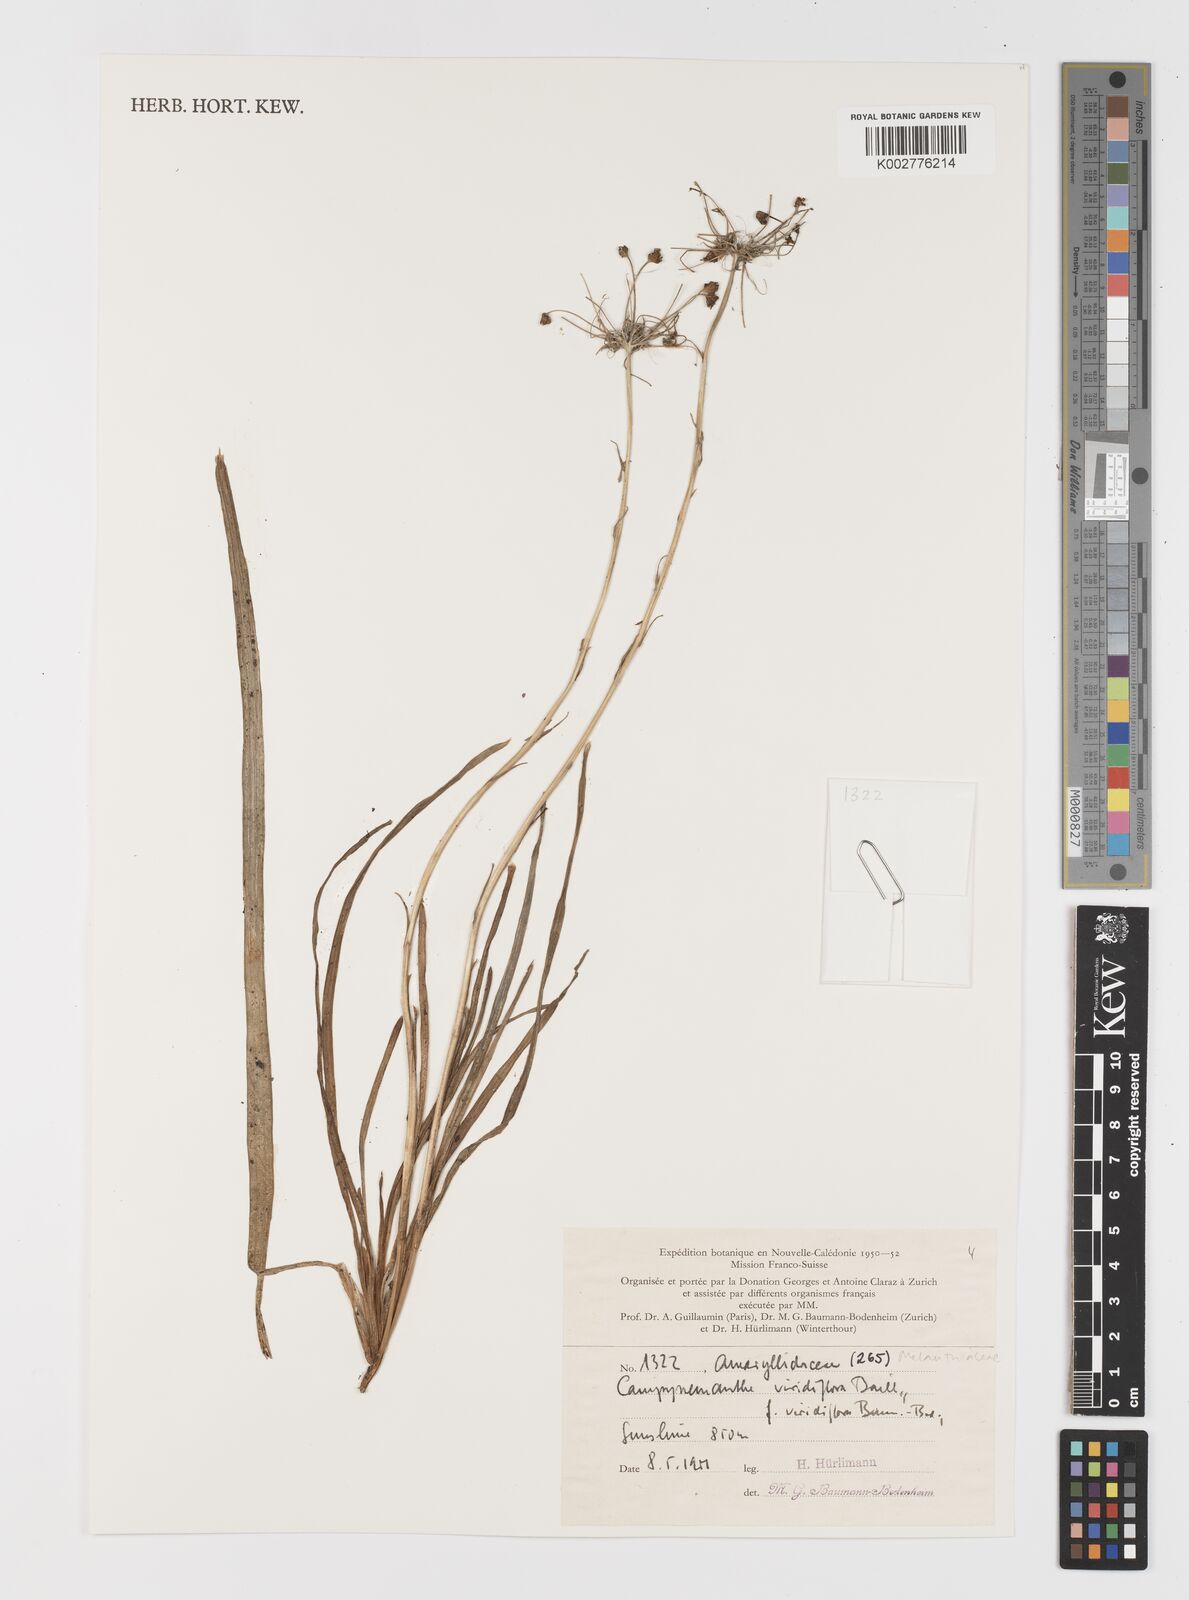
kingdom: Plantae
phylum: Tracheophyta
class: Liliopsida
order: Liliales
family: Campynemataceae
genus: Campynemanthe
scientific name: Campynemanthe viridiflora
